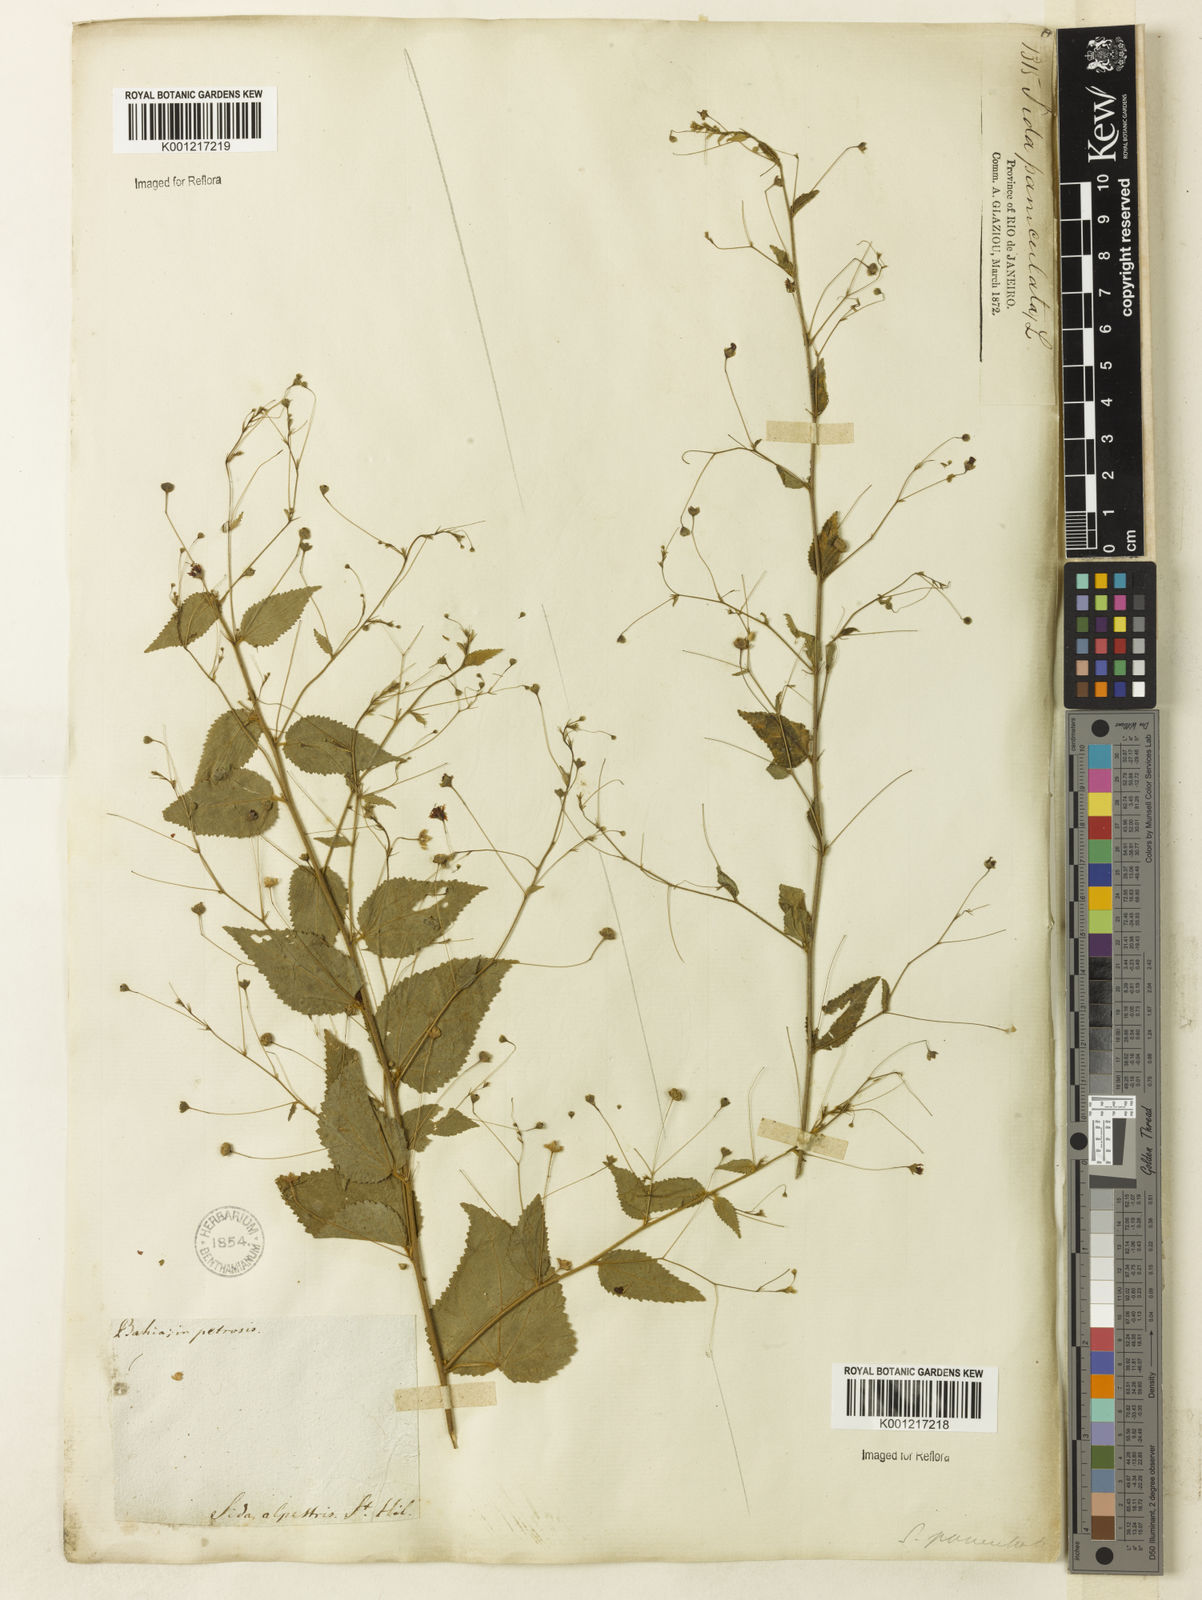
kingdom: Plantae
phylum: Tracheophyta
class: Magnoliopsida
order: Malvales
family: Malvaceae
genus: Sidastrum
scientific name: Sidastrum paniculatum
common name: Panicled sandmallow
